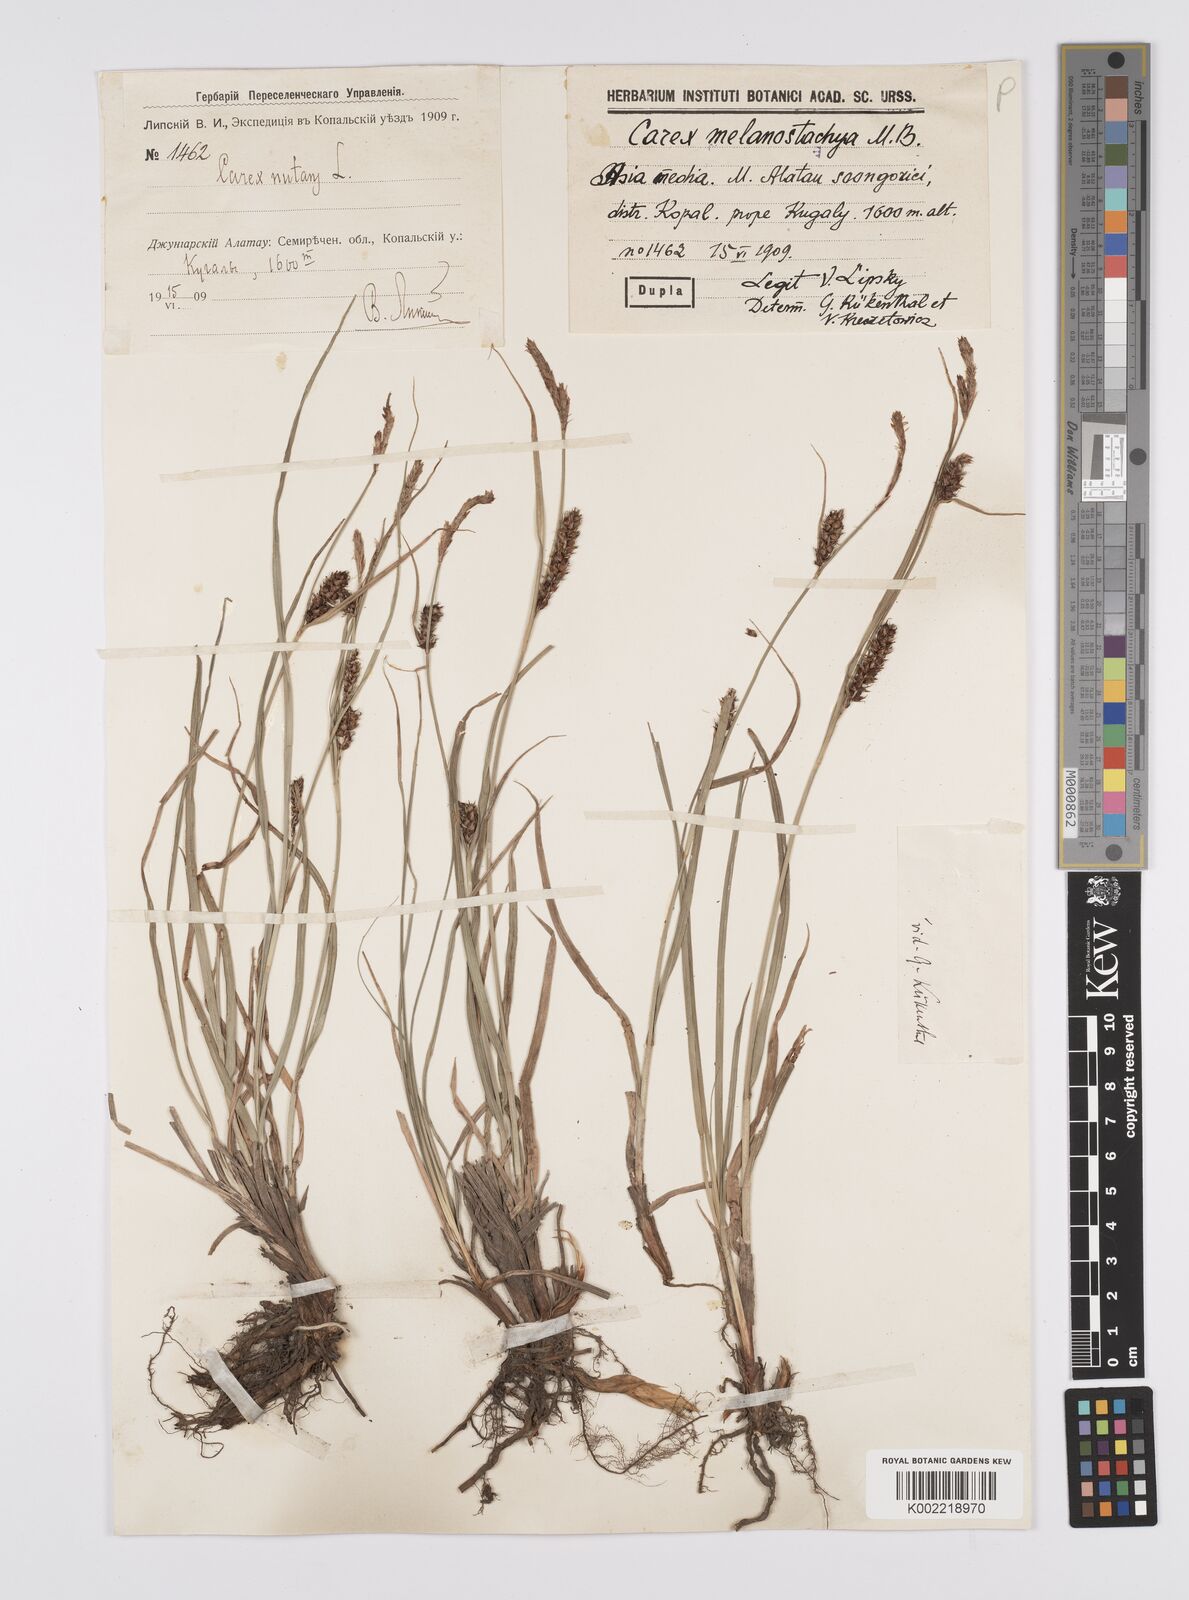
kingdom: Plantae
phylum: Tracheophyta
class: Liliopsida
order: Poales
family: Cyperaceae
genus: Carex
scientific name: Carex melanostachya
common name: Black-spiked sedge
